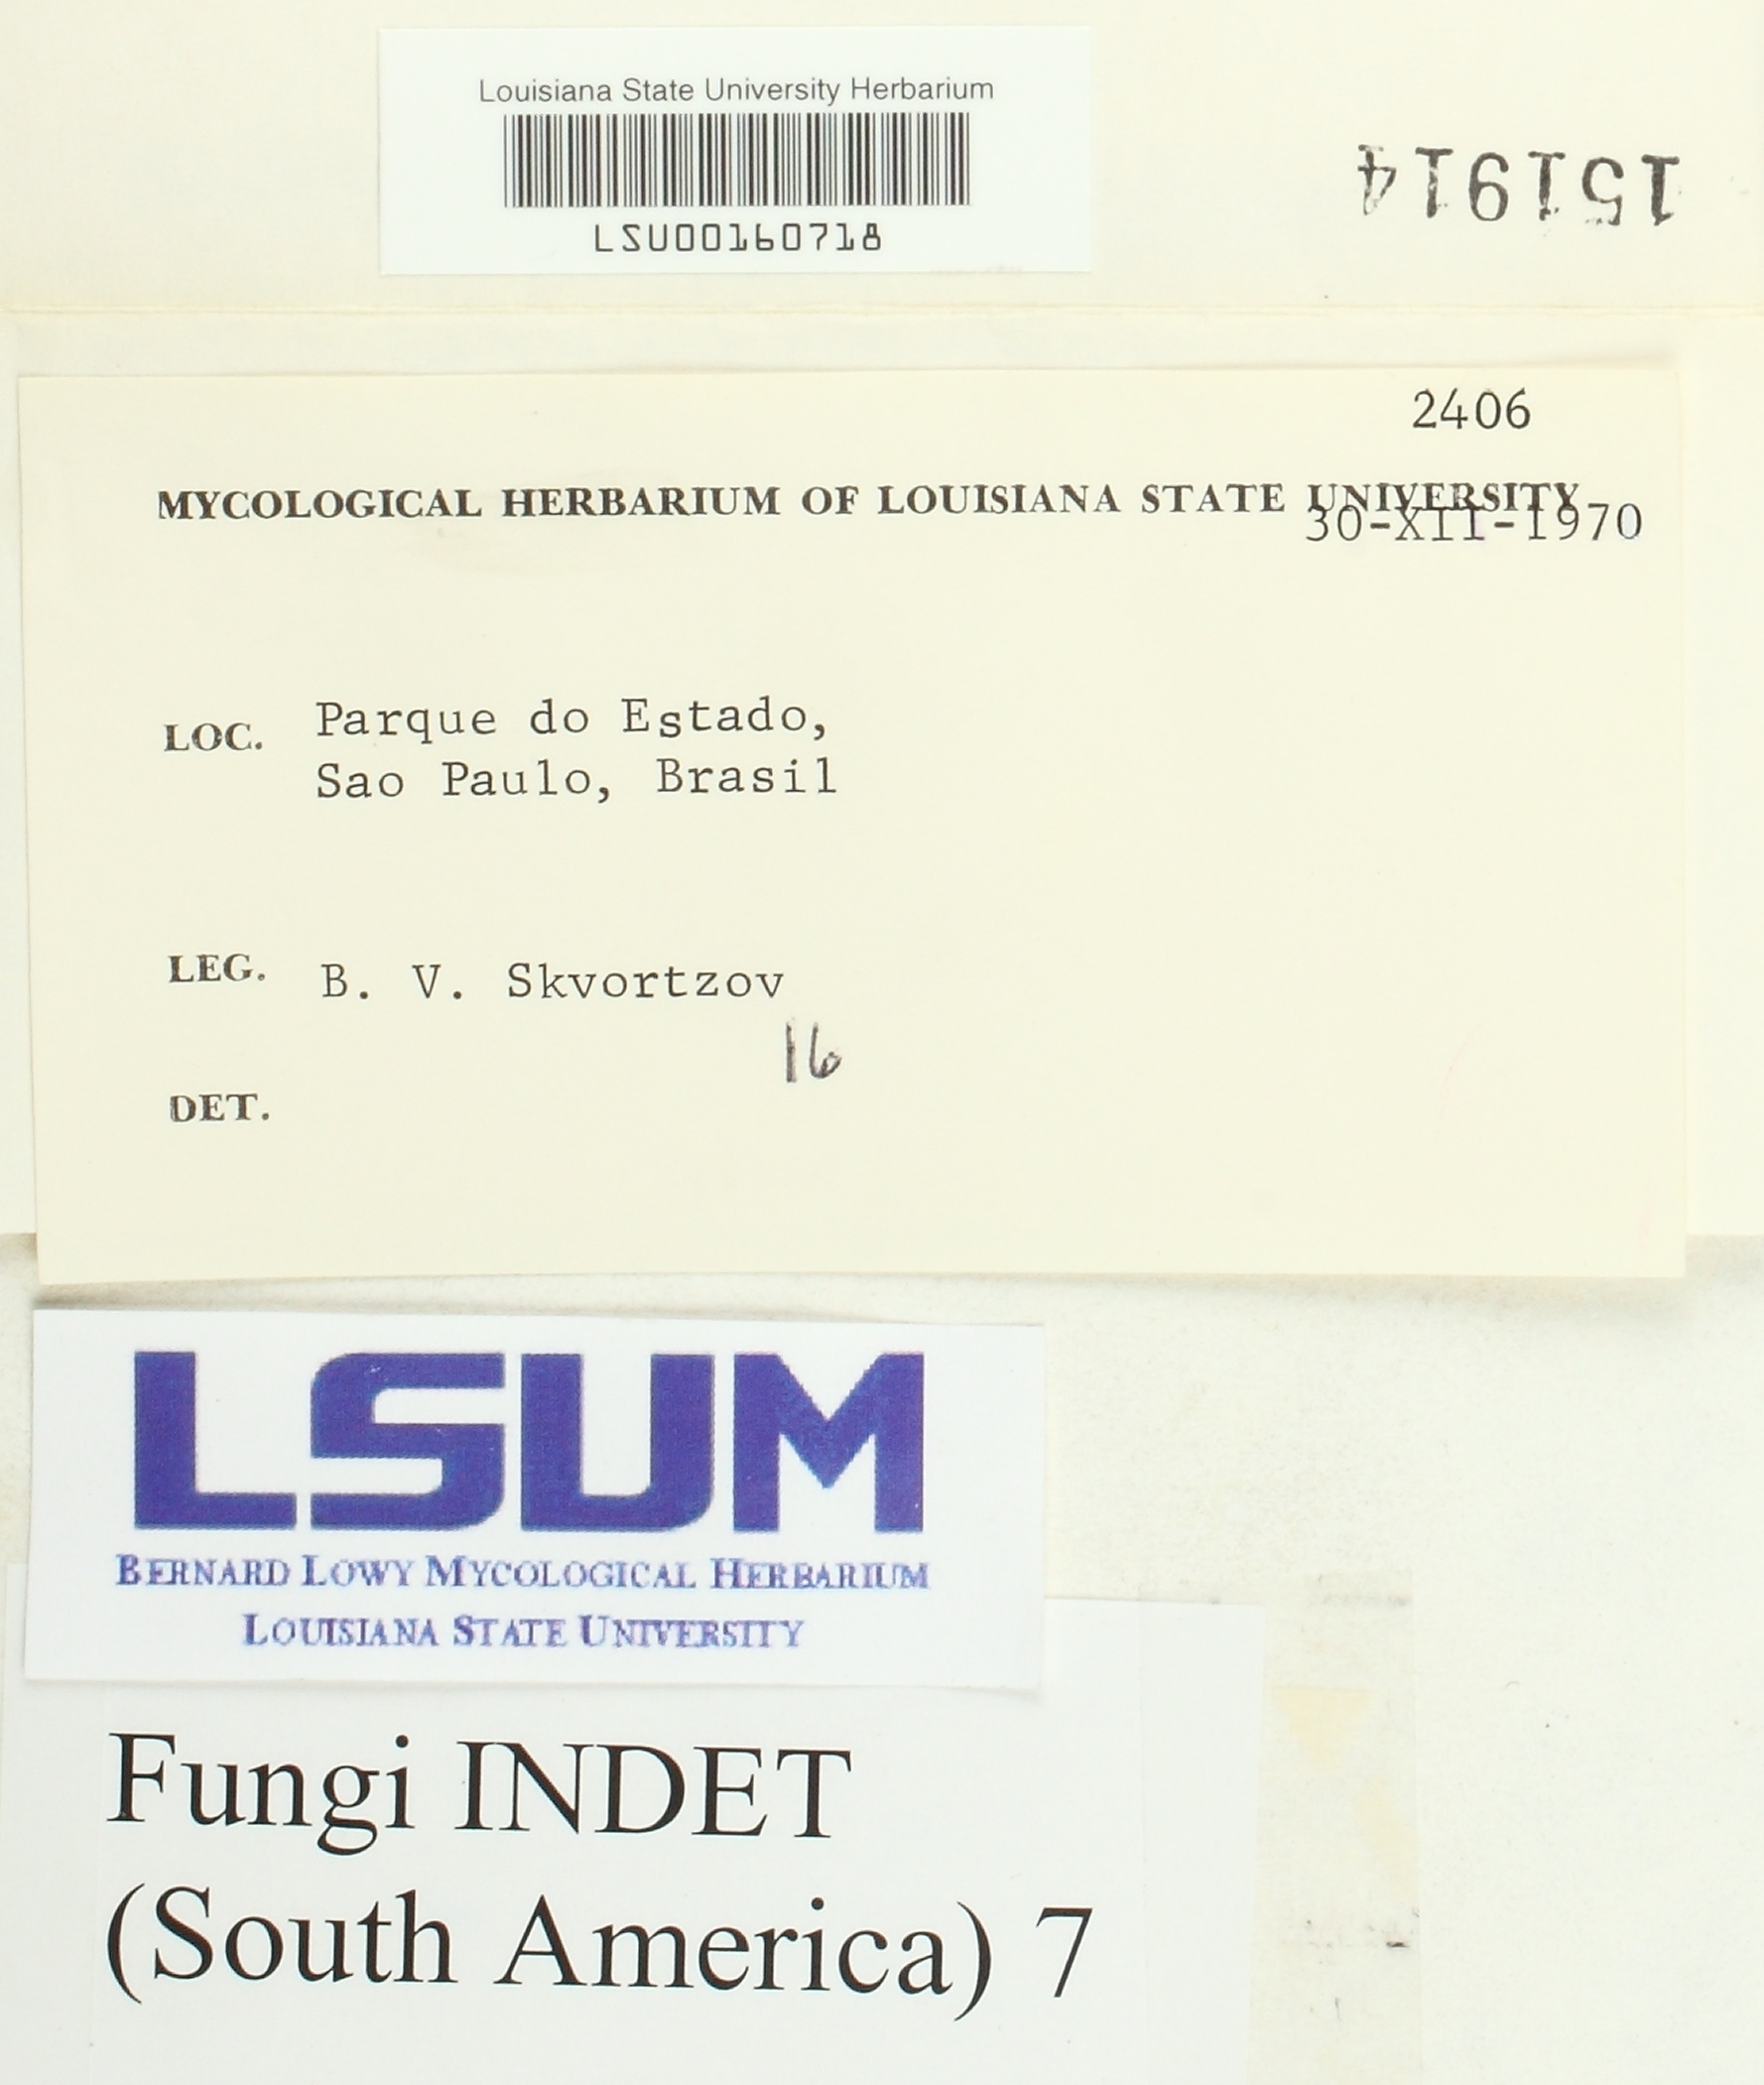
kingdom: Fungi
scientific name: Fungi
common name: Fungi
